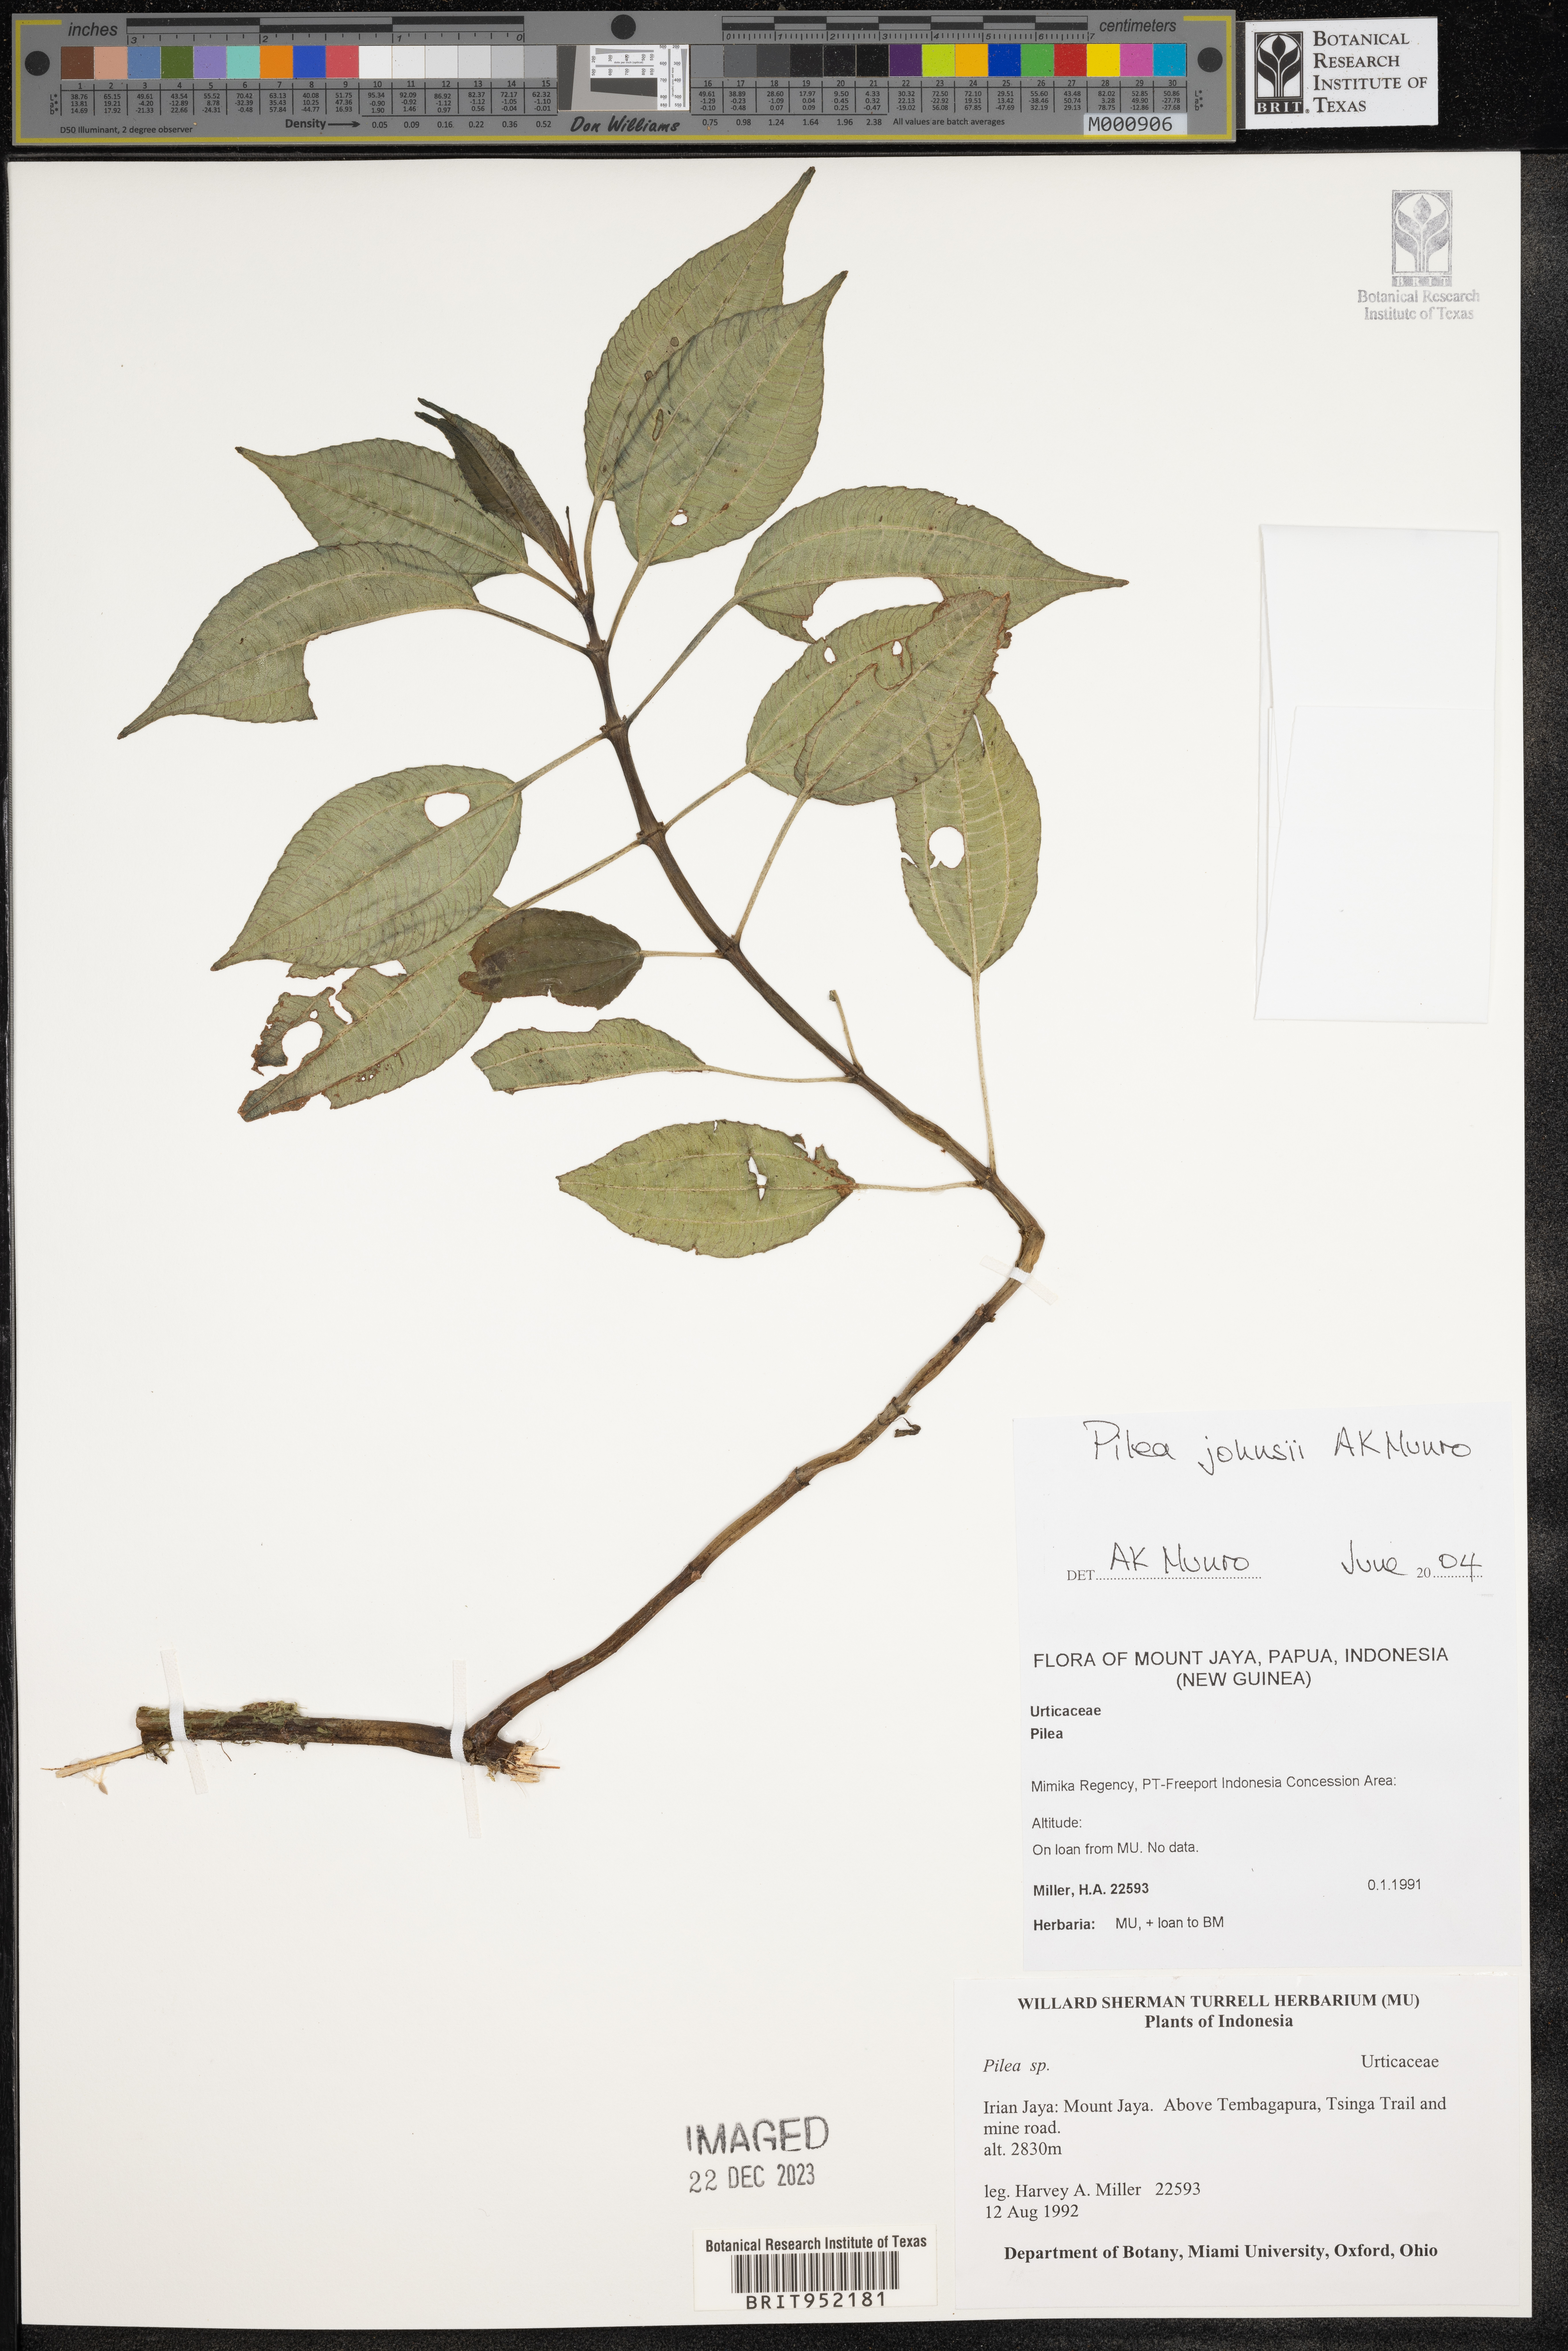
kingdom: Plantae
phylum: Tracheophyta
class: Magnoliopsida
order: Rosales
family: Urticaceae
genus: Pilea
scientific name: Pilea
